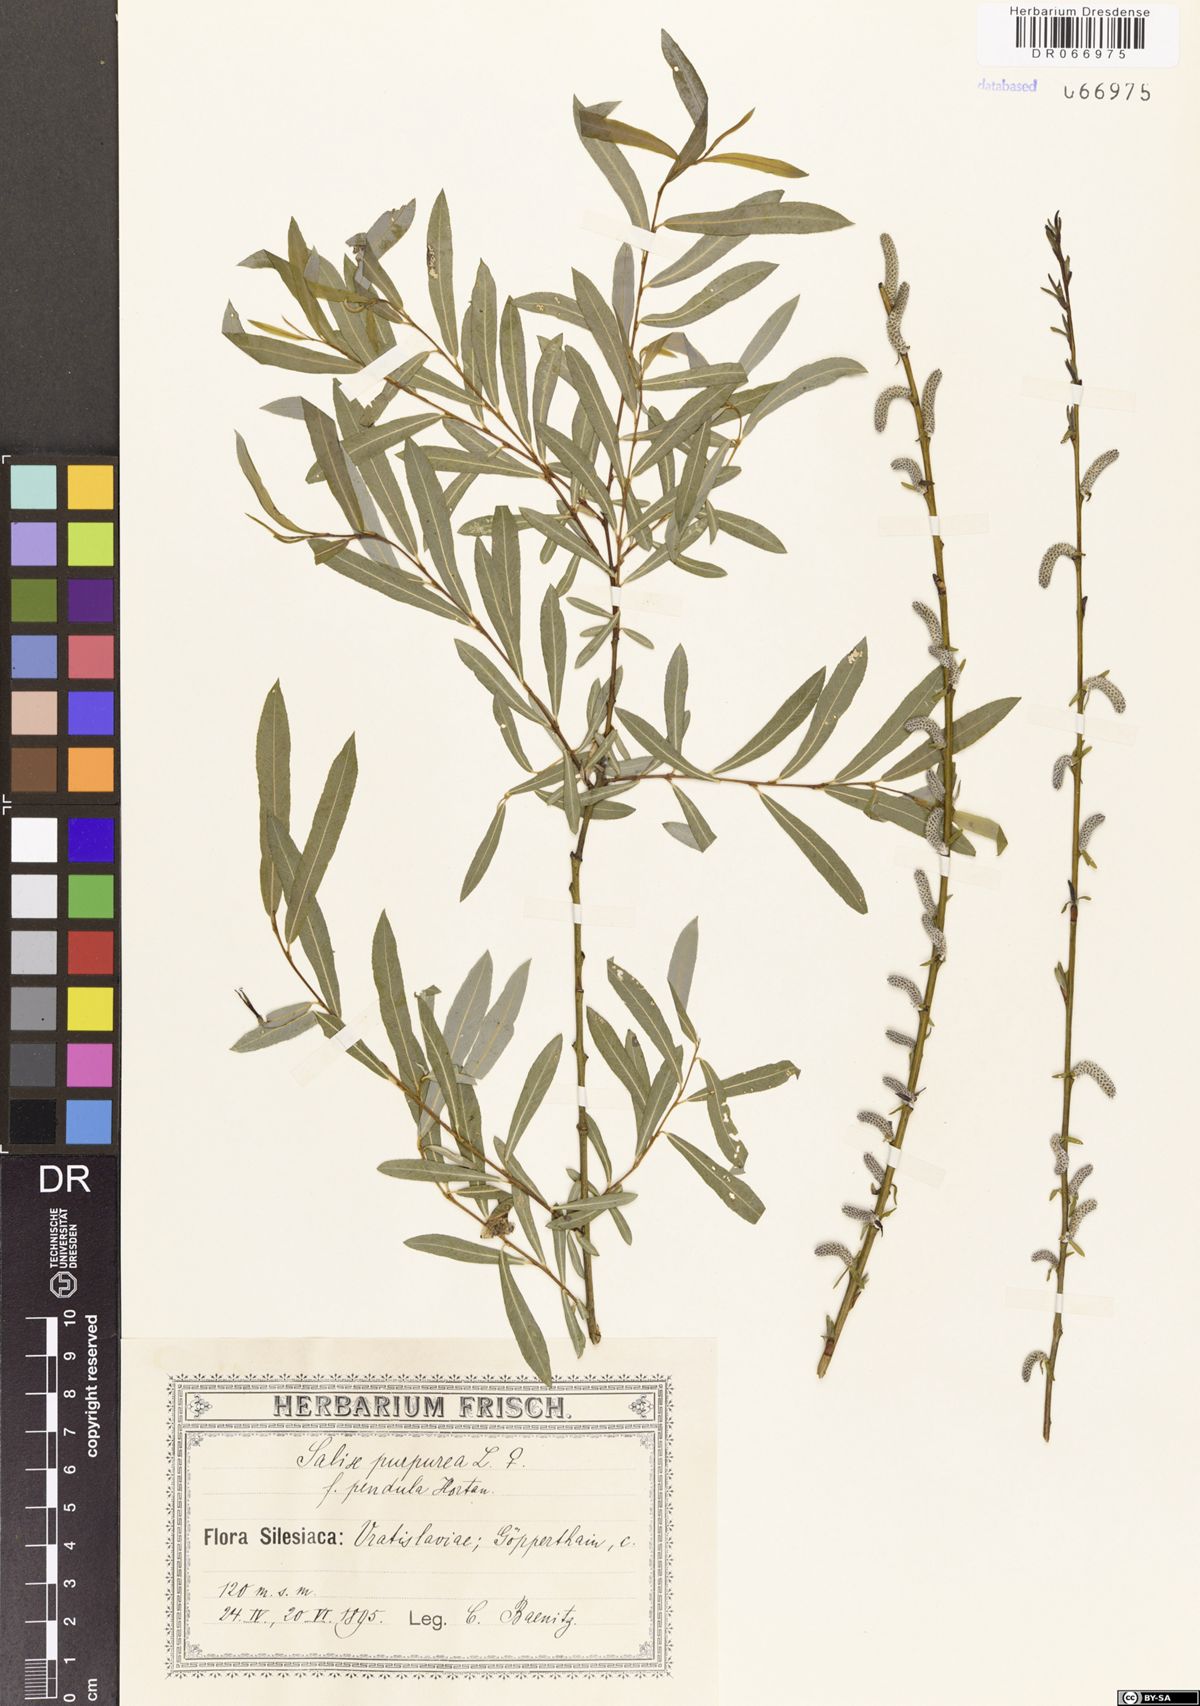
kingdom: Plantae
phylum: Tracheophyta
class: Magnoliopsida
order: Malpighiales
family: Salicaceae
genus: Salix
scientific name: Salix purpurea
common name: Purple willow
